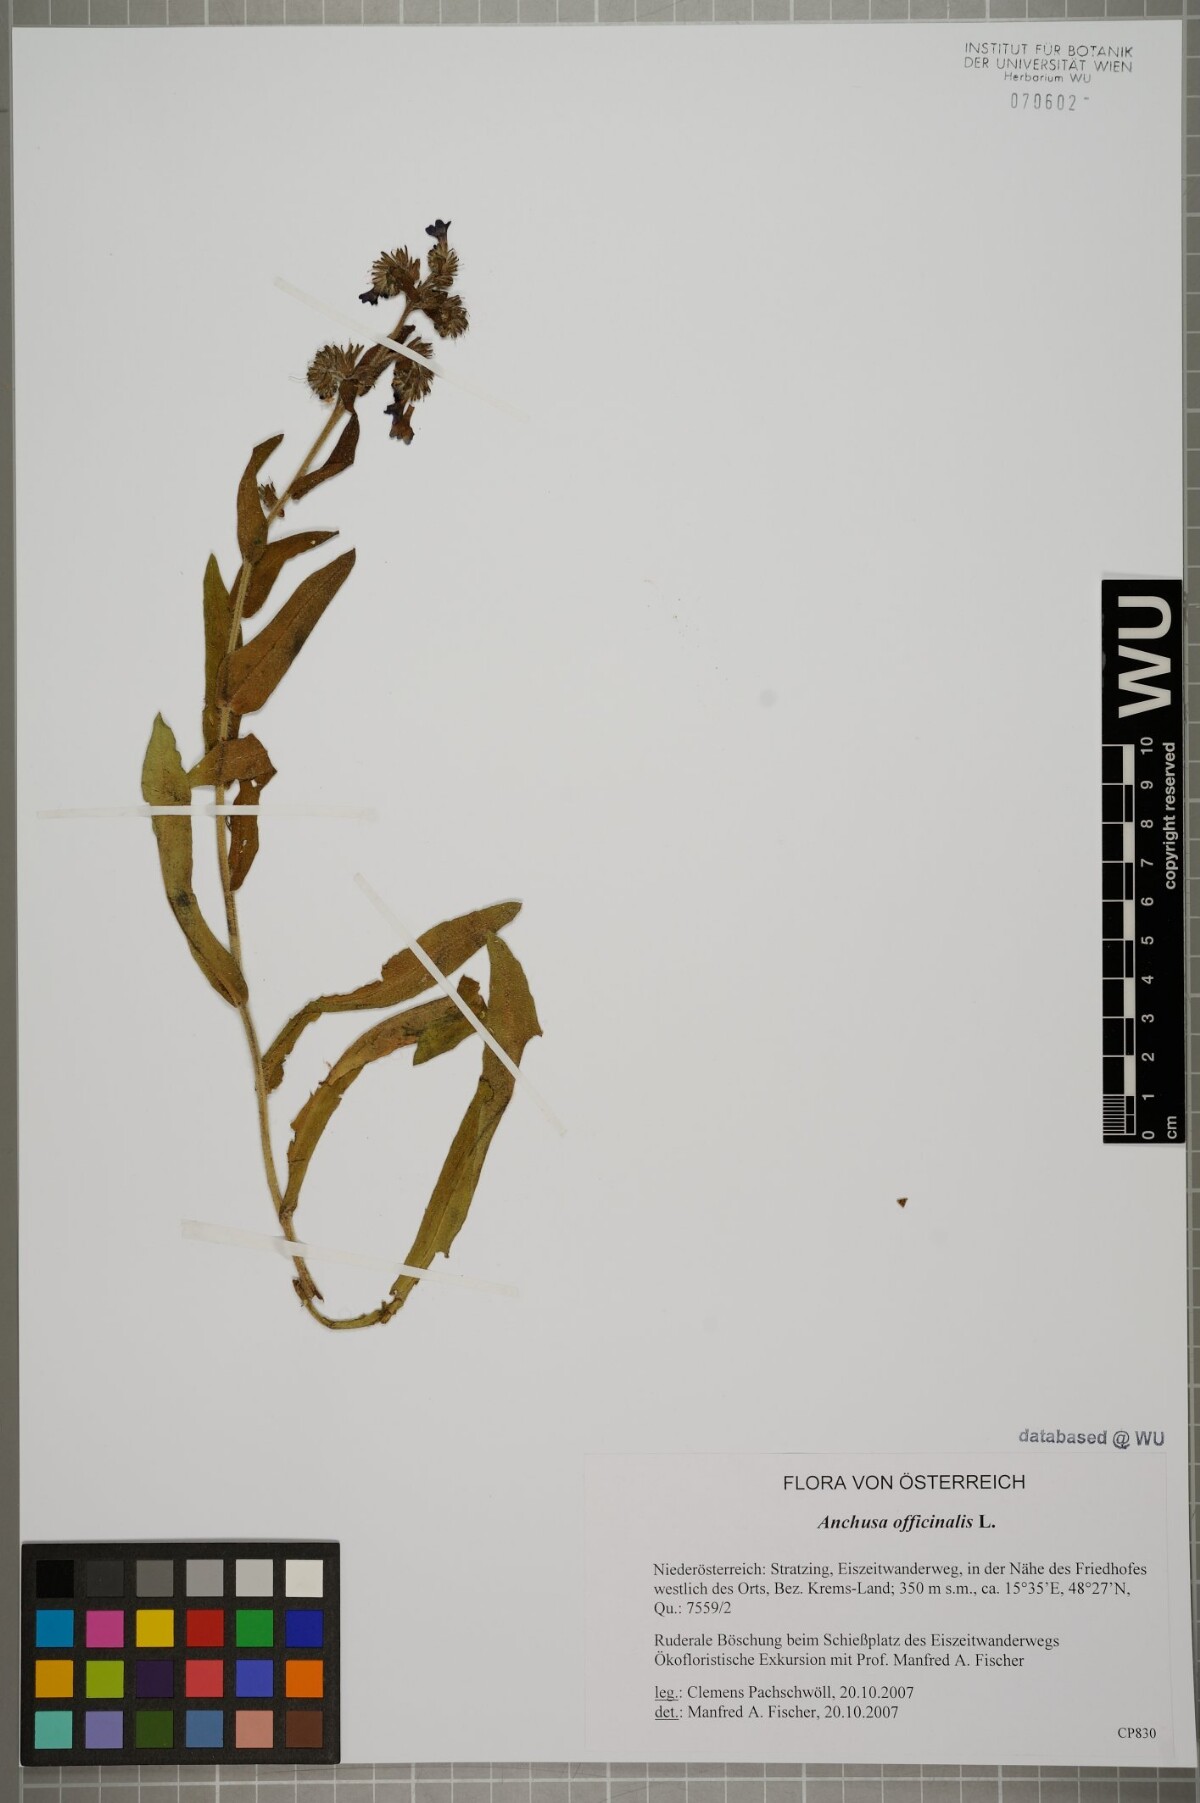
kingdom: Plantae
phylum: Tracheophyta
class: Magnoliopsida
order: Boraginales
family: Boraginaceae
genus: Anchusa
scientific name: Anchusa officinalis
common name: Alkanet
